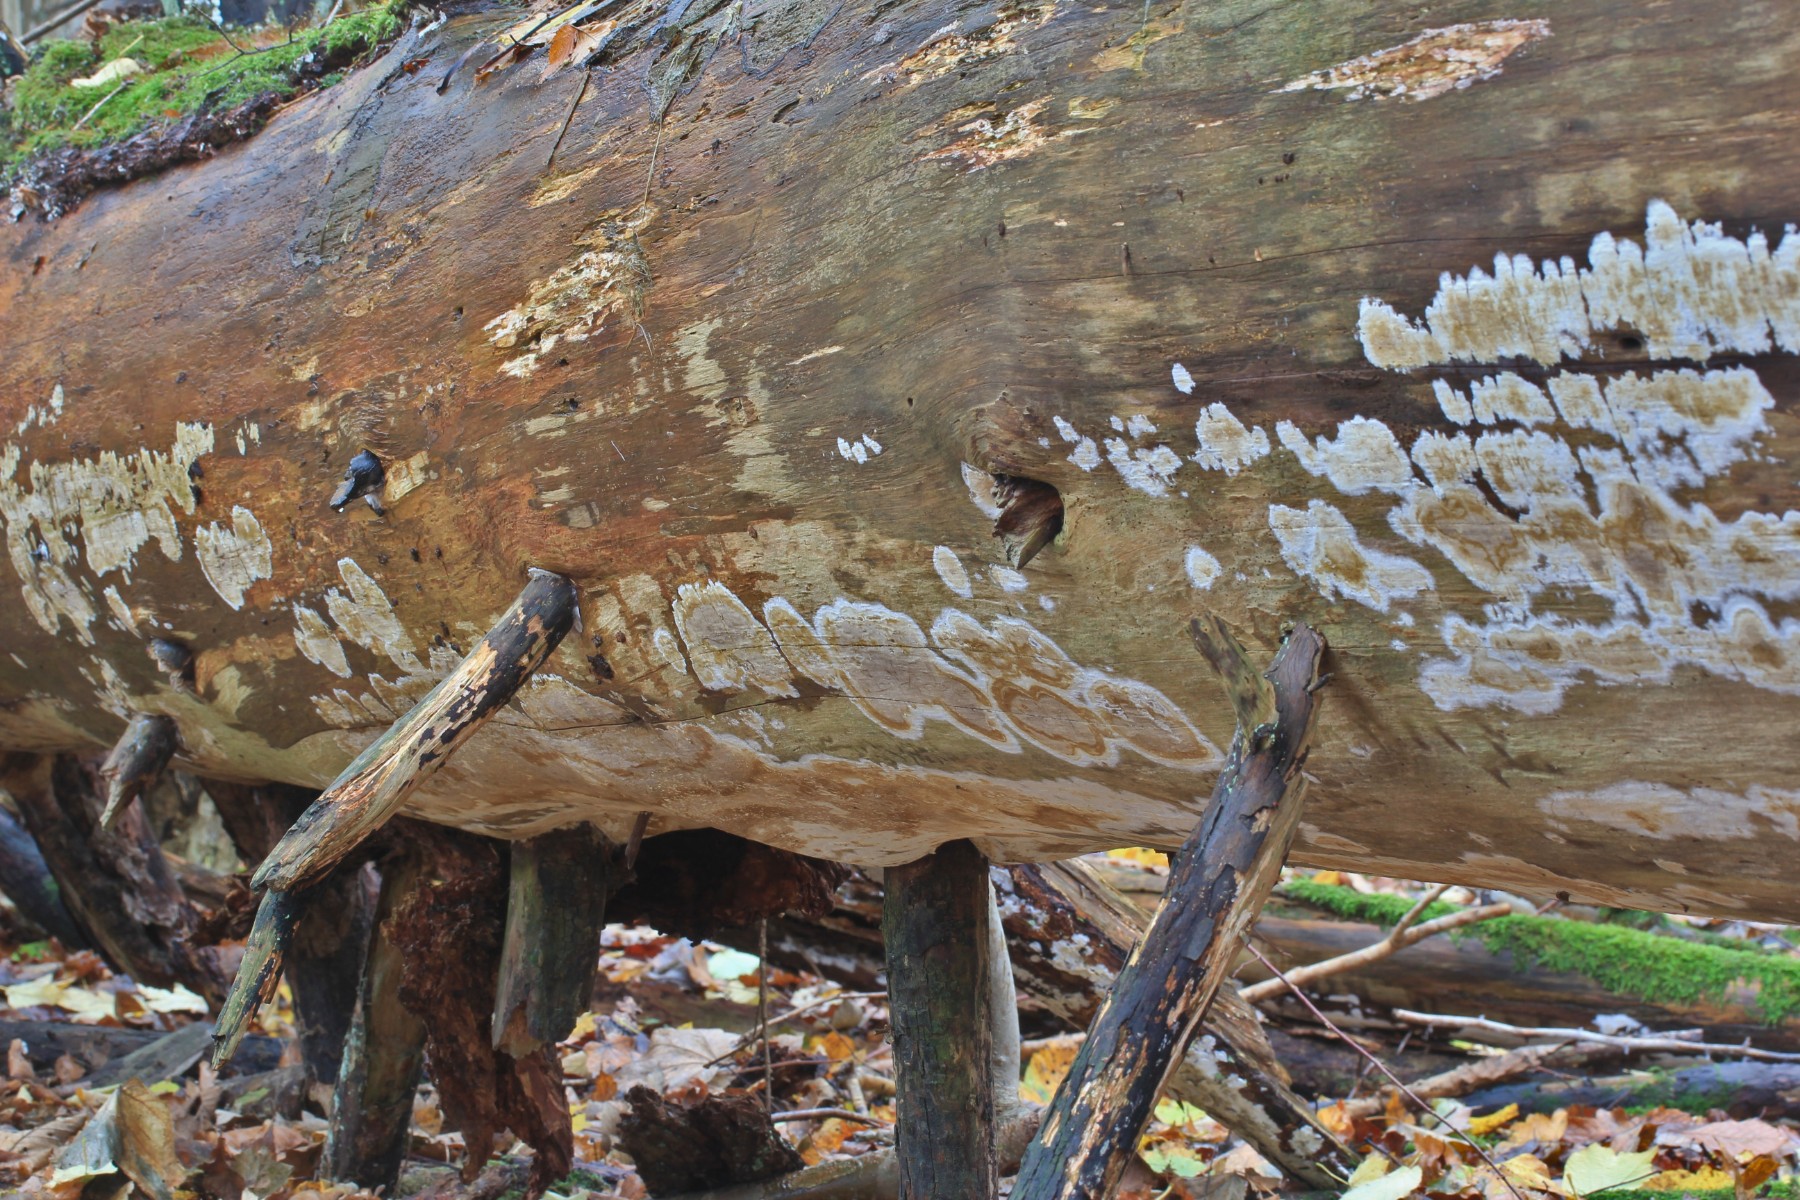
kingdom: Fungi
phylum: Basidiomycota
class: Agaricomycetes
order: Boletales
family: Coniophoraceae
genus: Coniophora
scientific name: Coniophora puteana
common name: gul tømmersvamp
